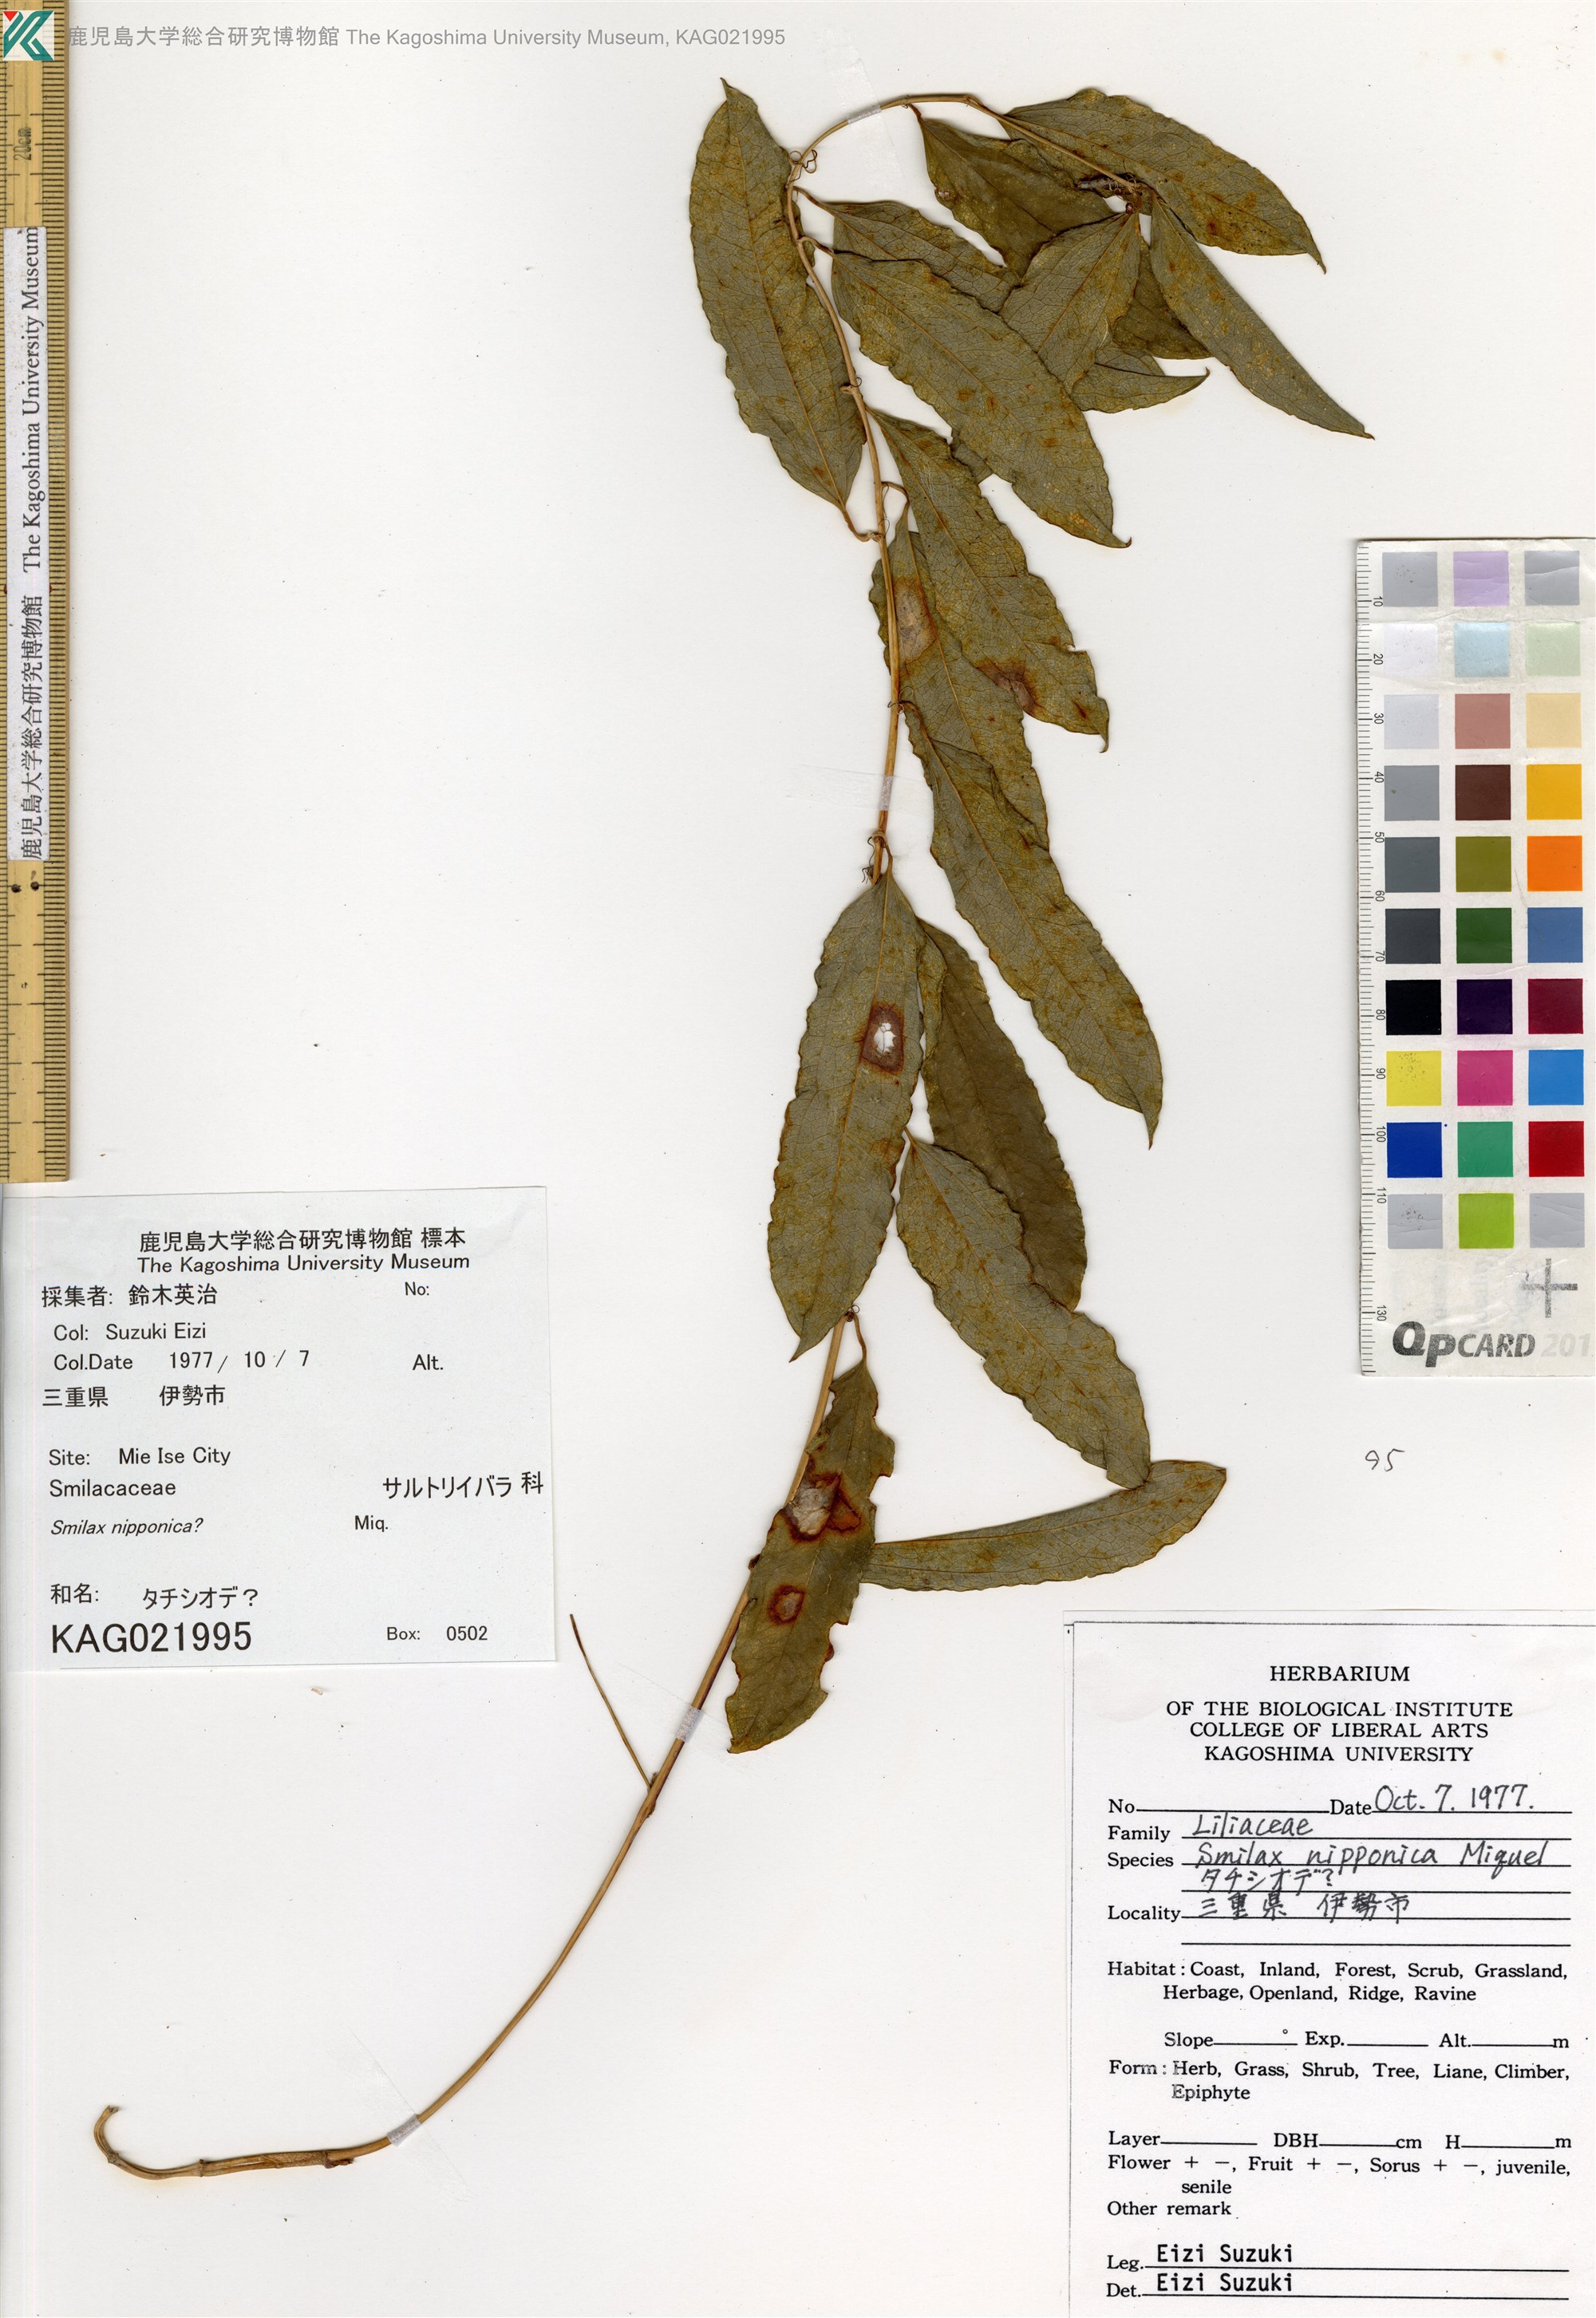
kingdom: Plantae
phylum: Tracheophyta
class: Liliopsida
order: Liliales
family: Smilacaceae
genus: Smilax
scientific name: Smilax
